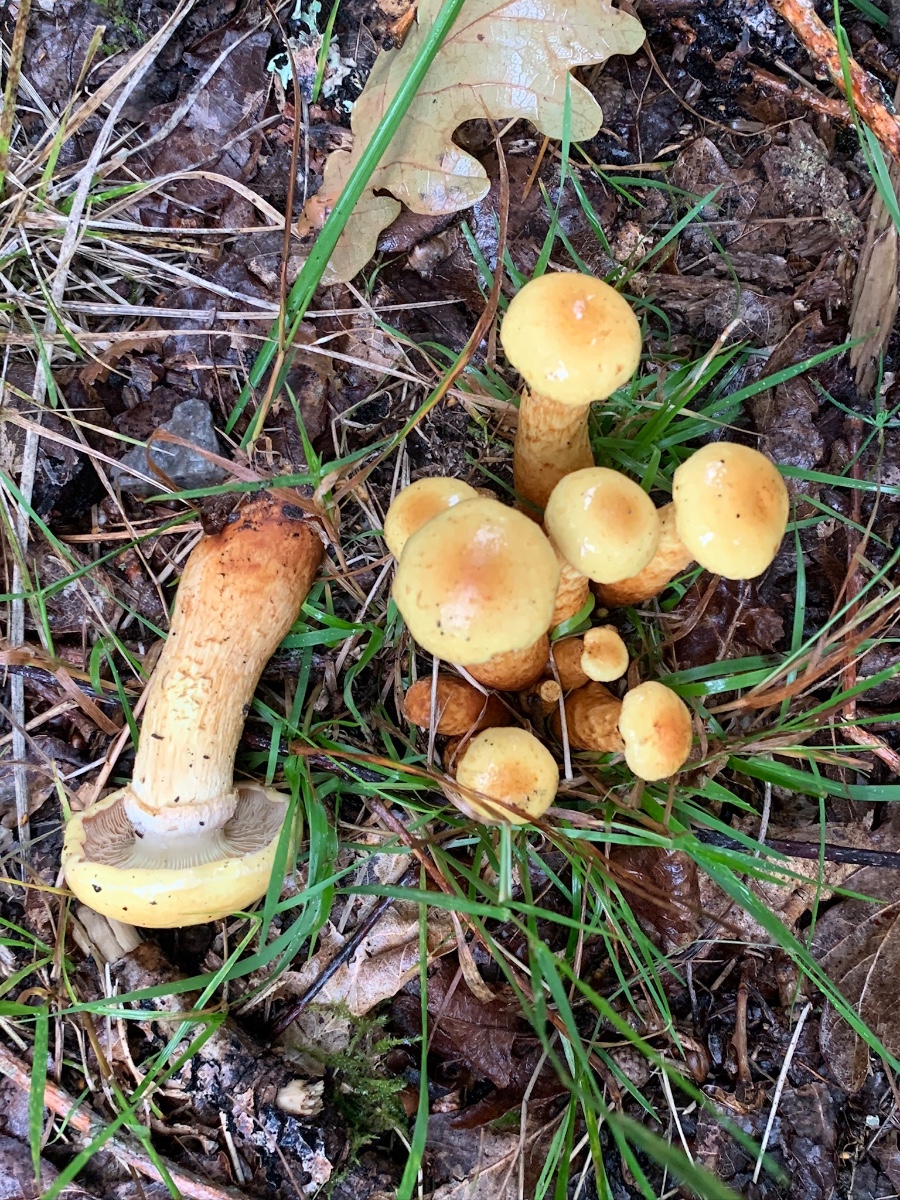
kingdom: Fungi
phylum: Basidiomycota
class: Agaricomycetes
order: Agaricales
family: Strophariaceae
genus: Hypholoma
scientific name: Hypholoma capnoides
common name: gran-svovlhat
